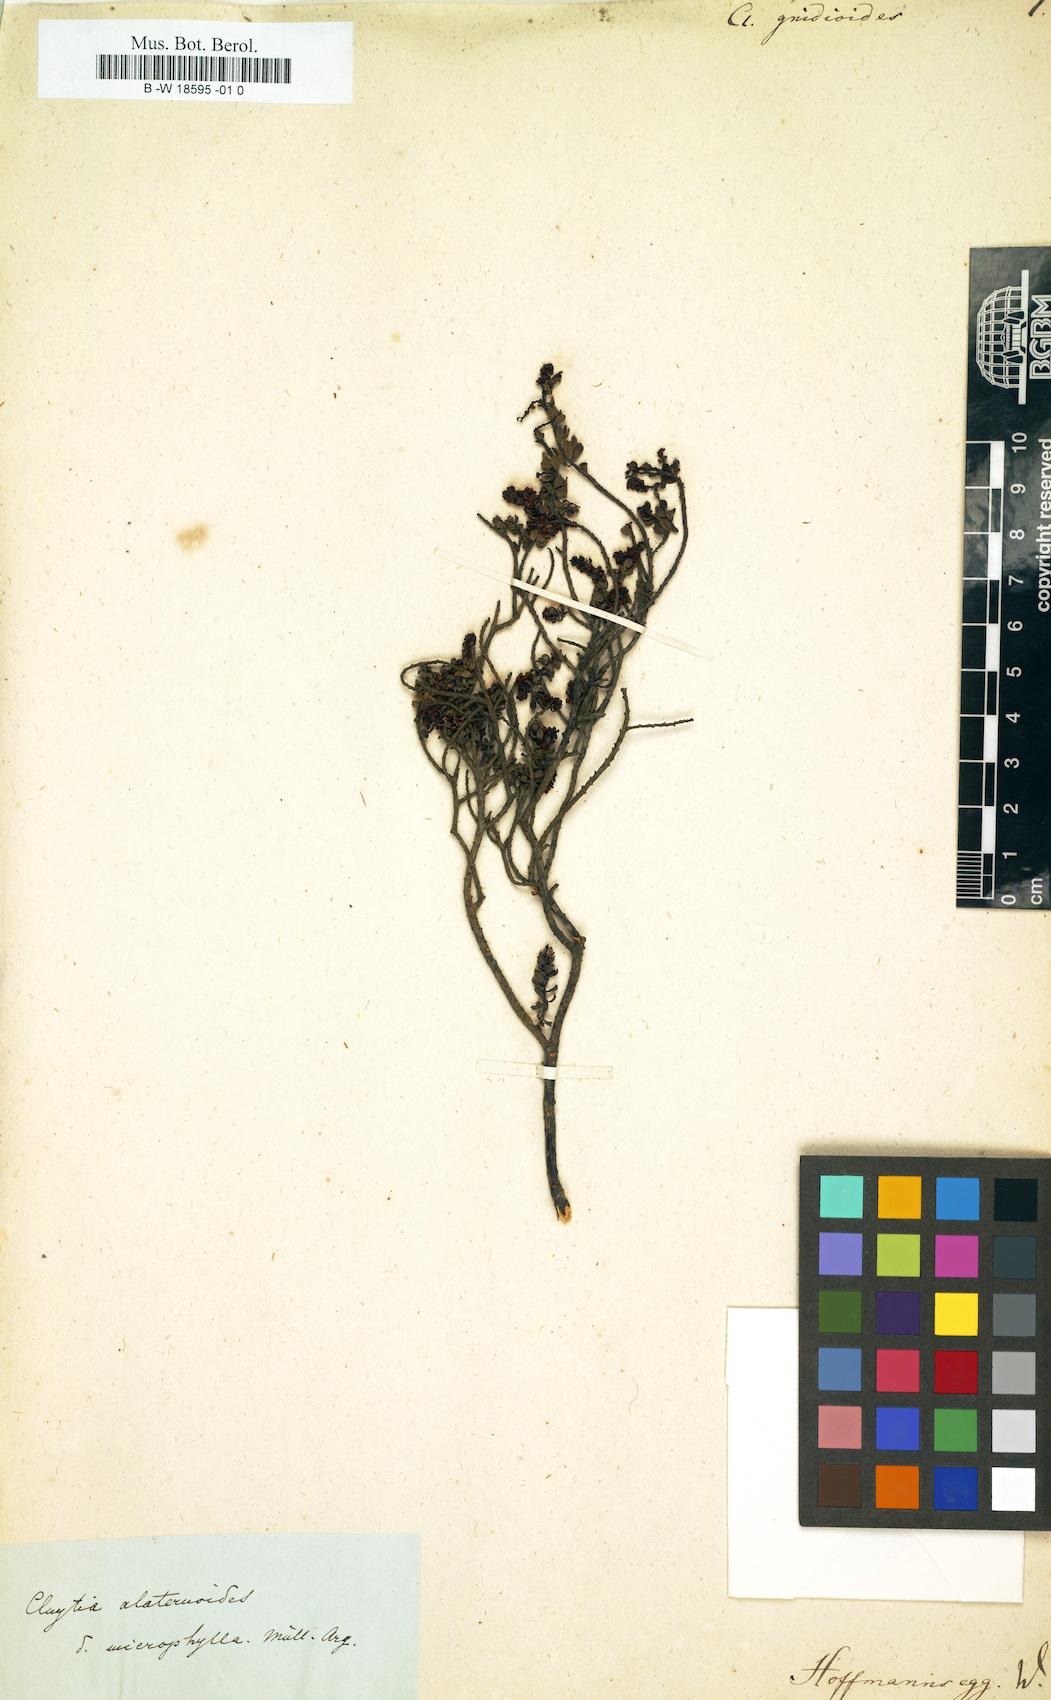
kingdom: Plantae
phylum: Tracheophyta
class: Magnoliopsida
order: Malpighiales
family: Peraceae
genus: Clutia
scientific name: Clutia
